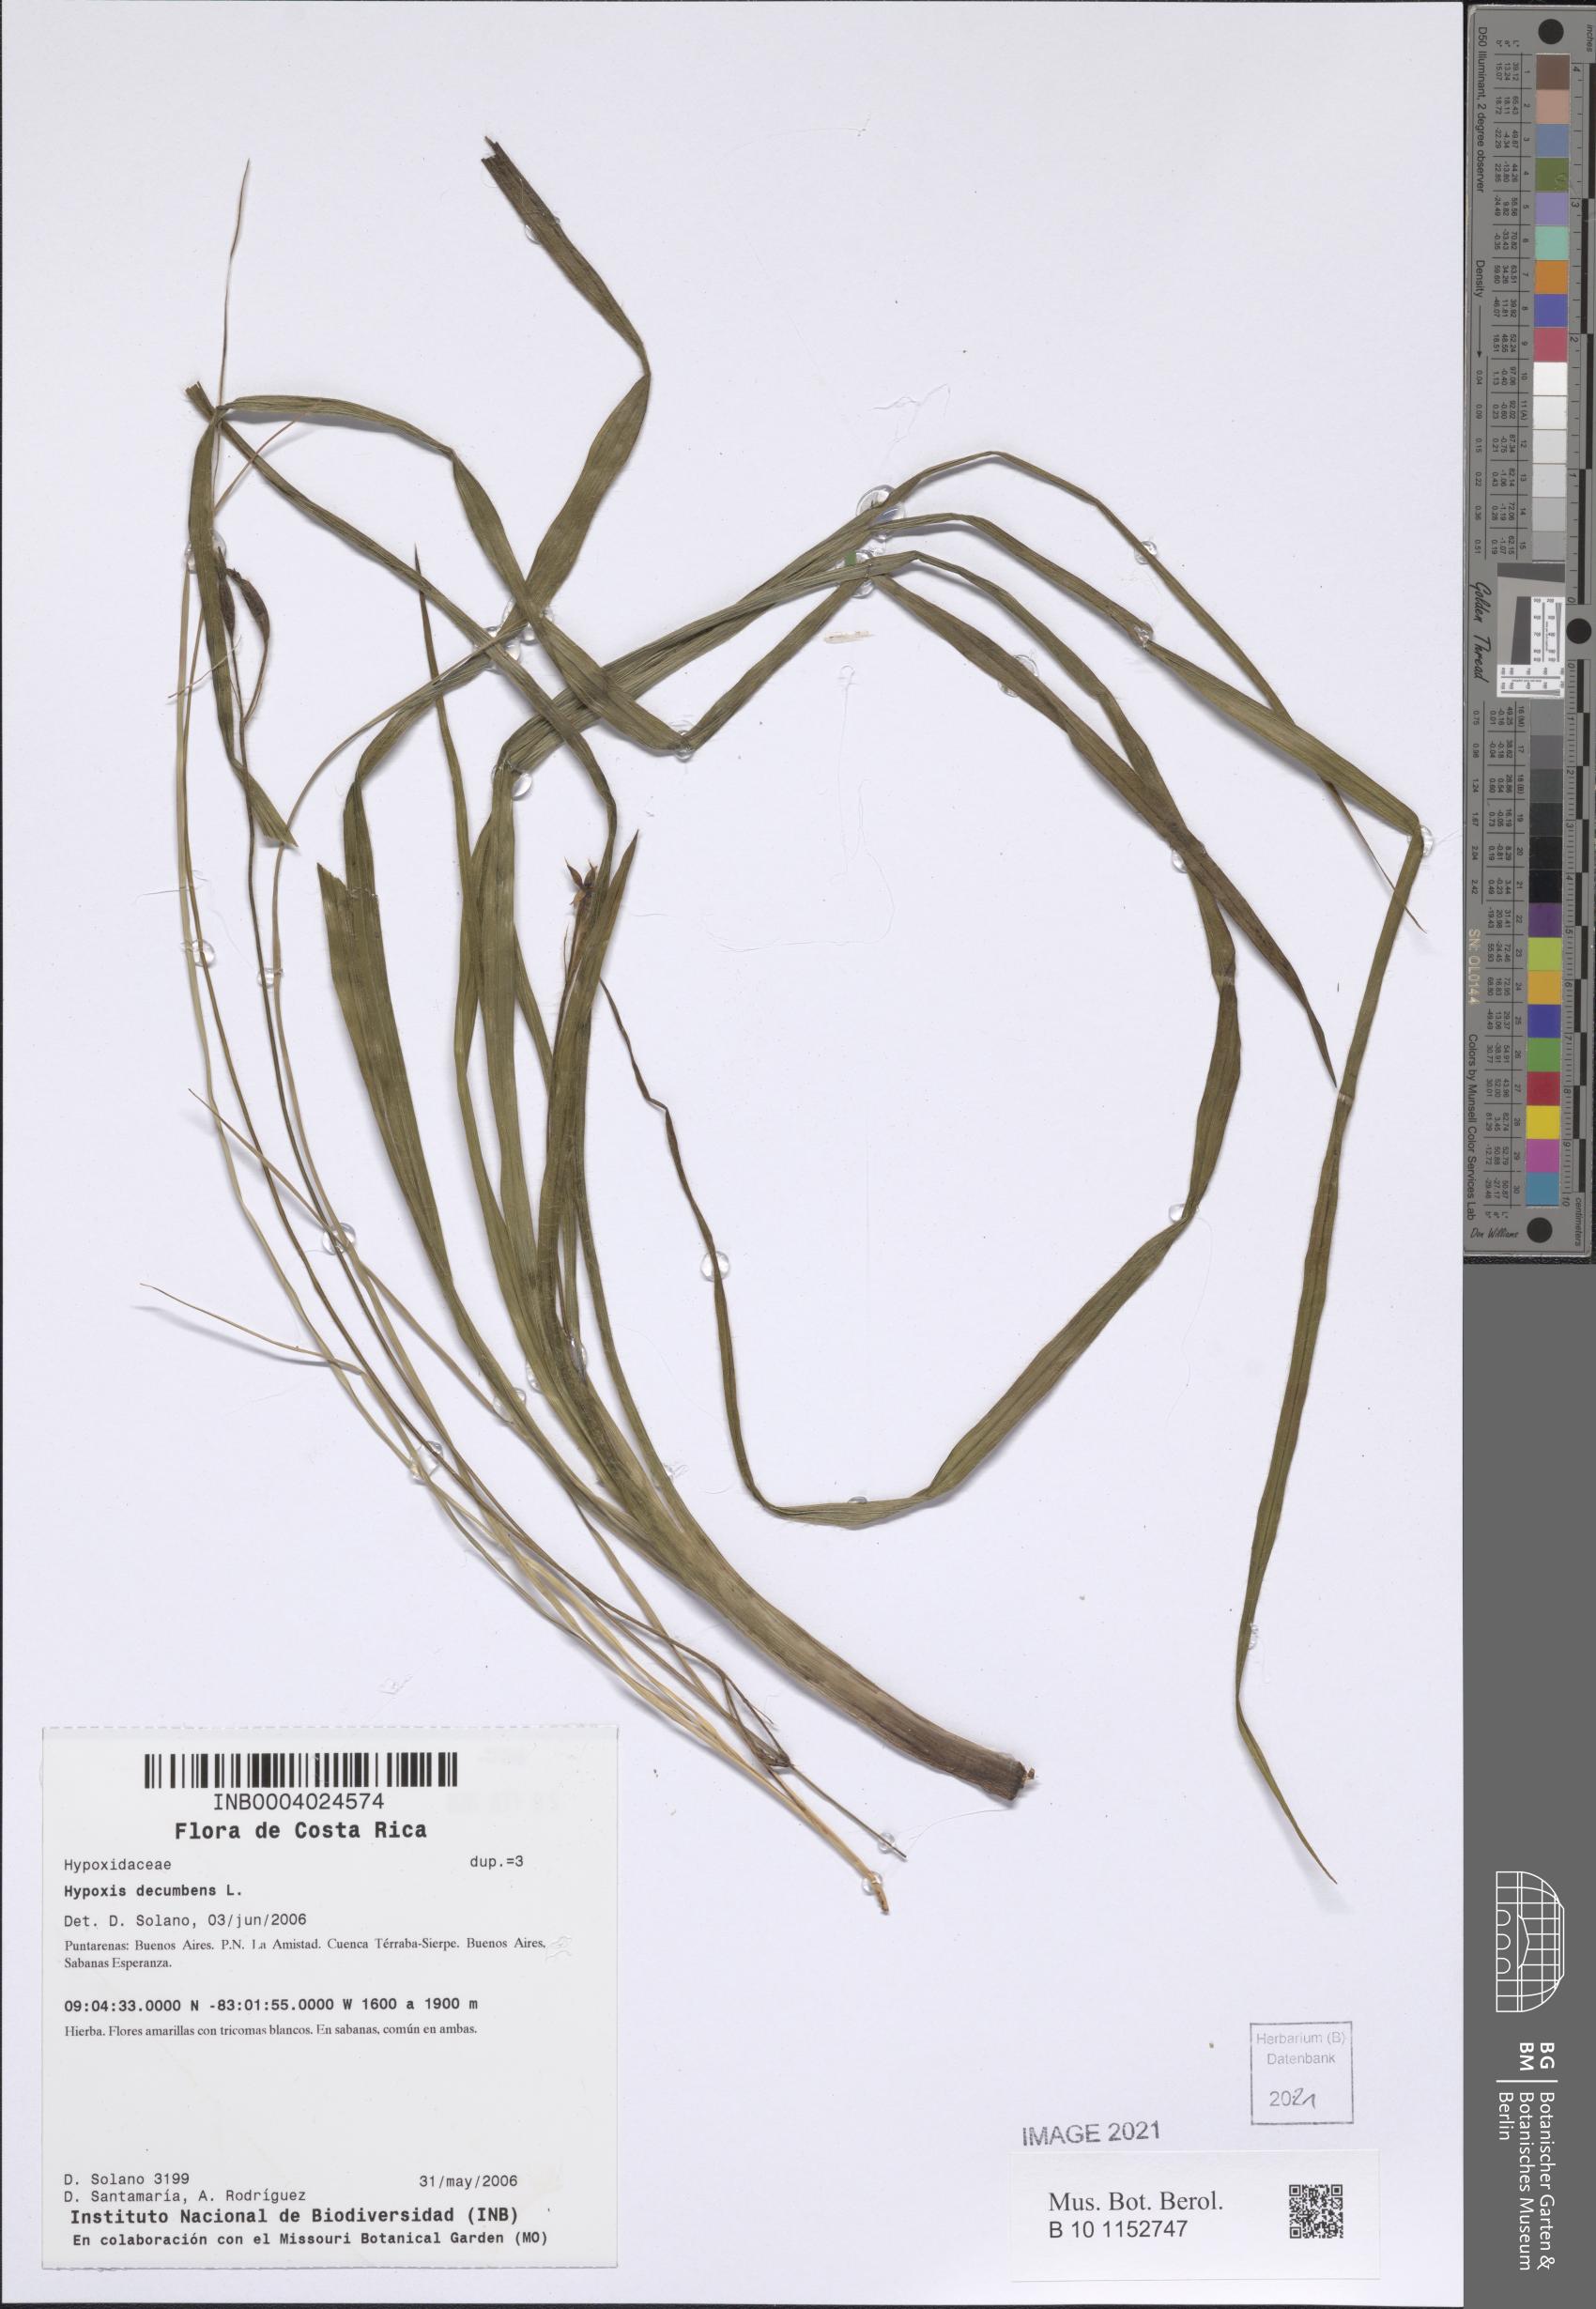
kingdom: Plantae
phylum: Tracheophyta
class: Liliopsida
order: Asparagales
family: Hypoxidaceae
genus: Hypoxis
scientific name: Hypoxis decumbens
